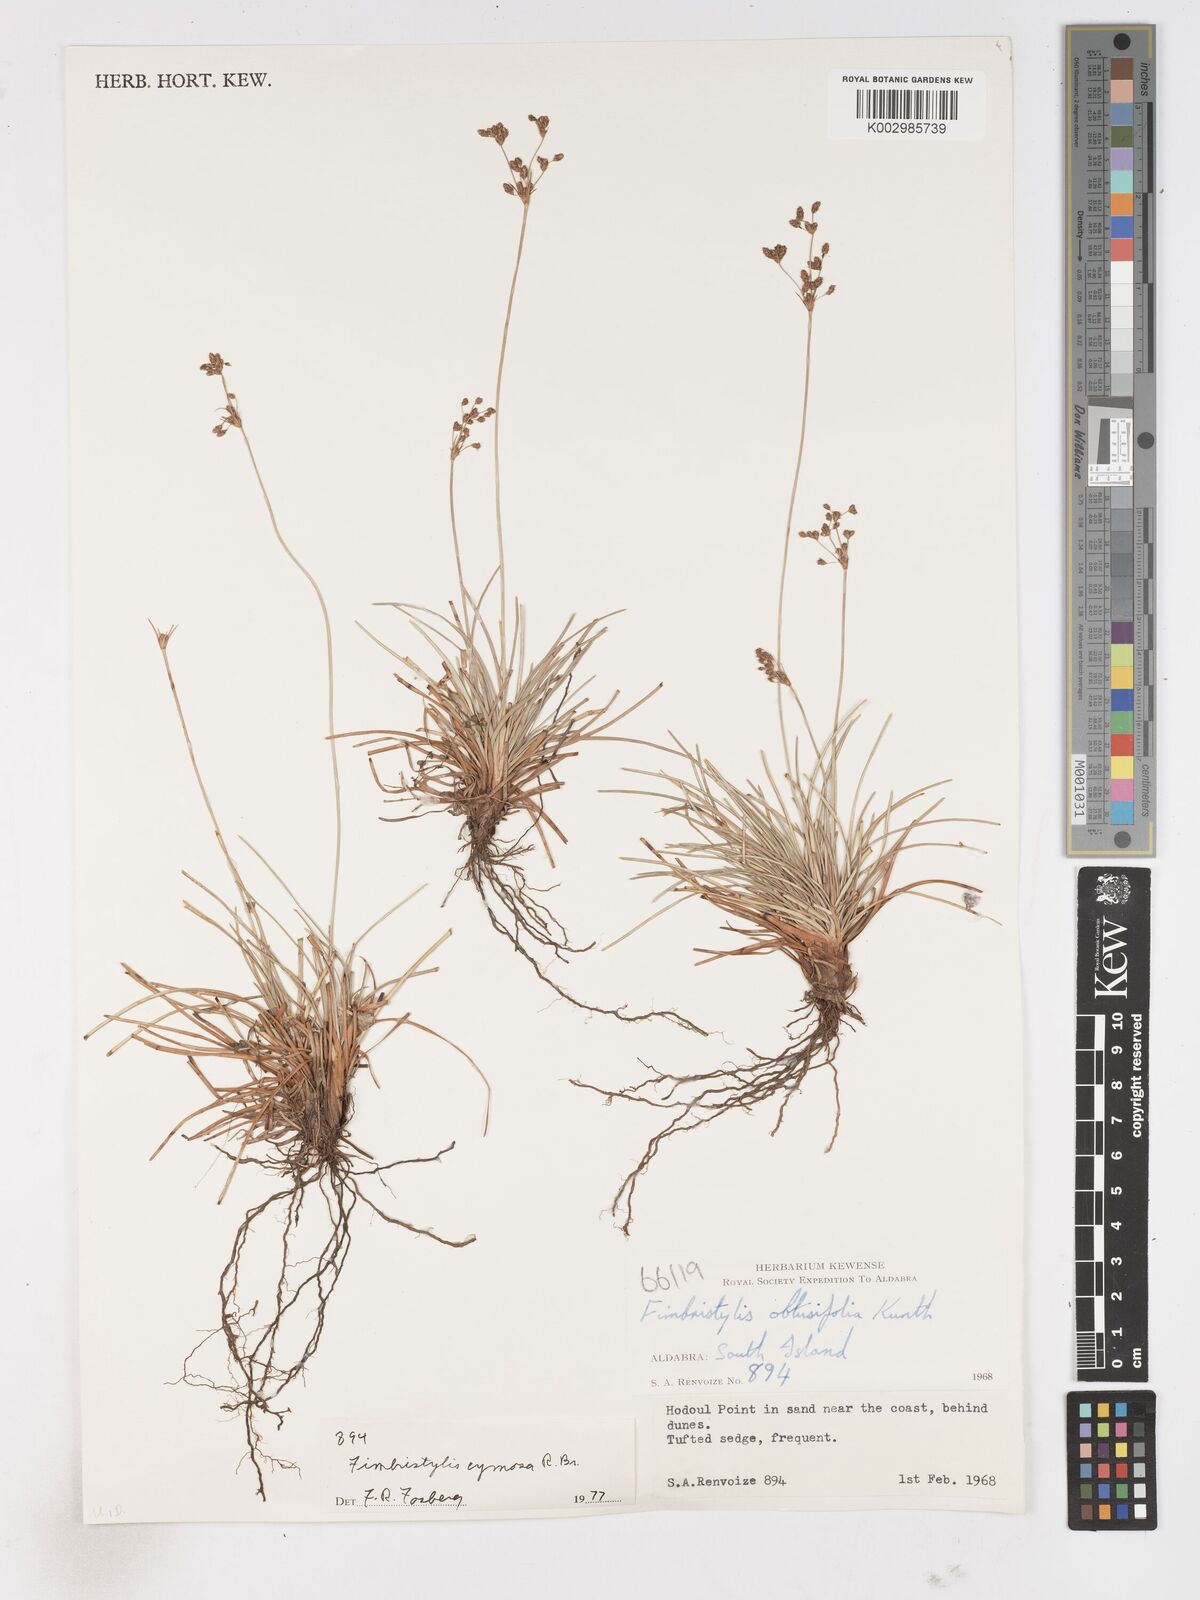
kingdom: Plantae
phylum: Tracheophyta
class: Liliopsida
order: Poales
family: Cyperaceae
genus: Fimbristylis
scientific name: Fimbristylis cymosa
